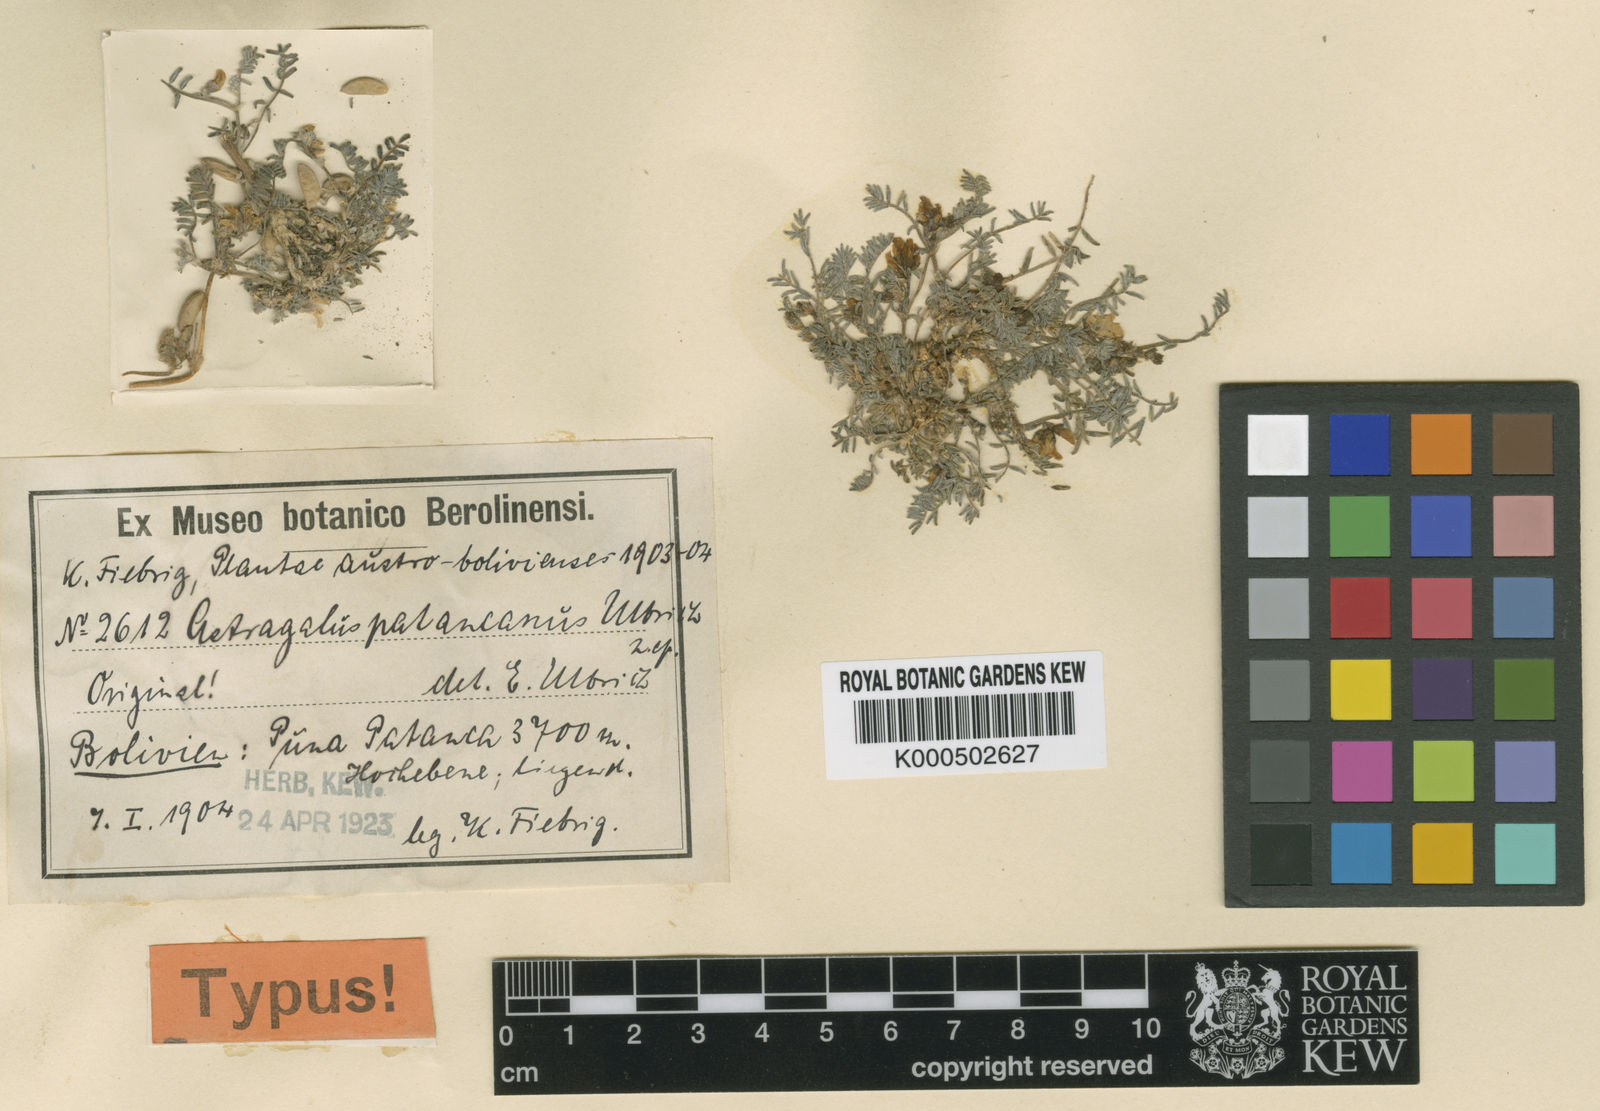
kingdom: Plantae
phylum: Tracheophyta
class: Magnoliopsida
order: Fabales
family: Fabaceae
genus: Astragalus
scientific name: Astragalus micranthellus
